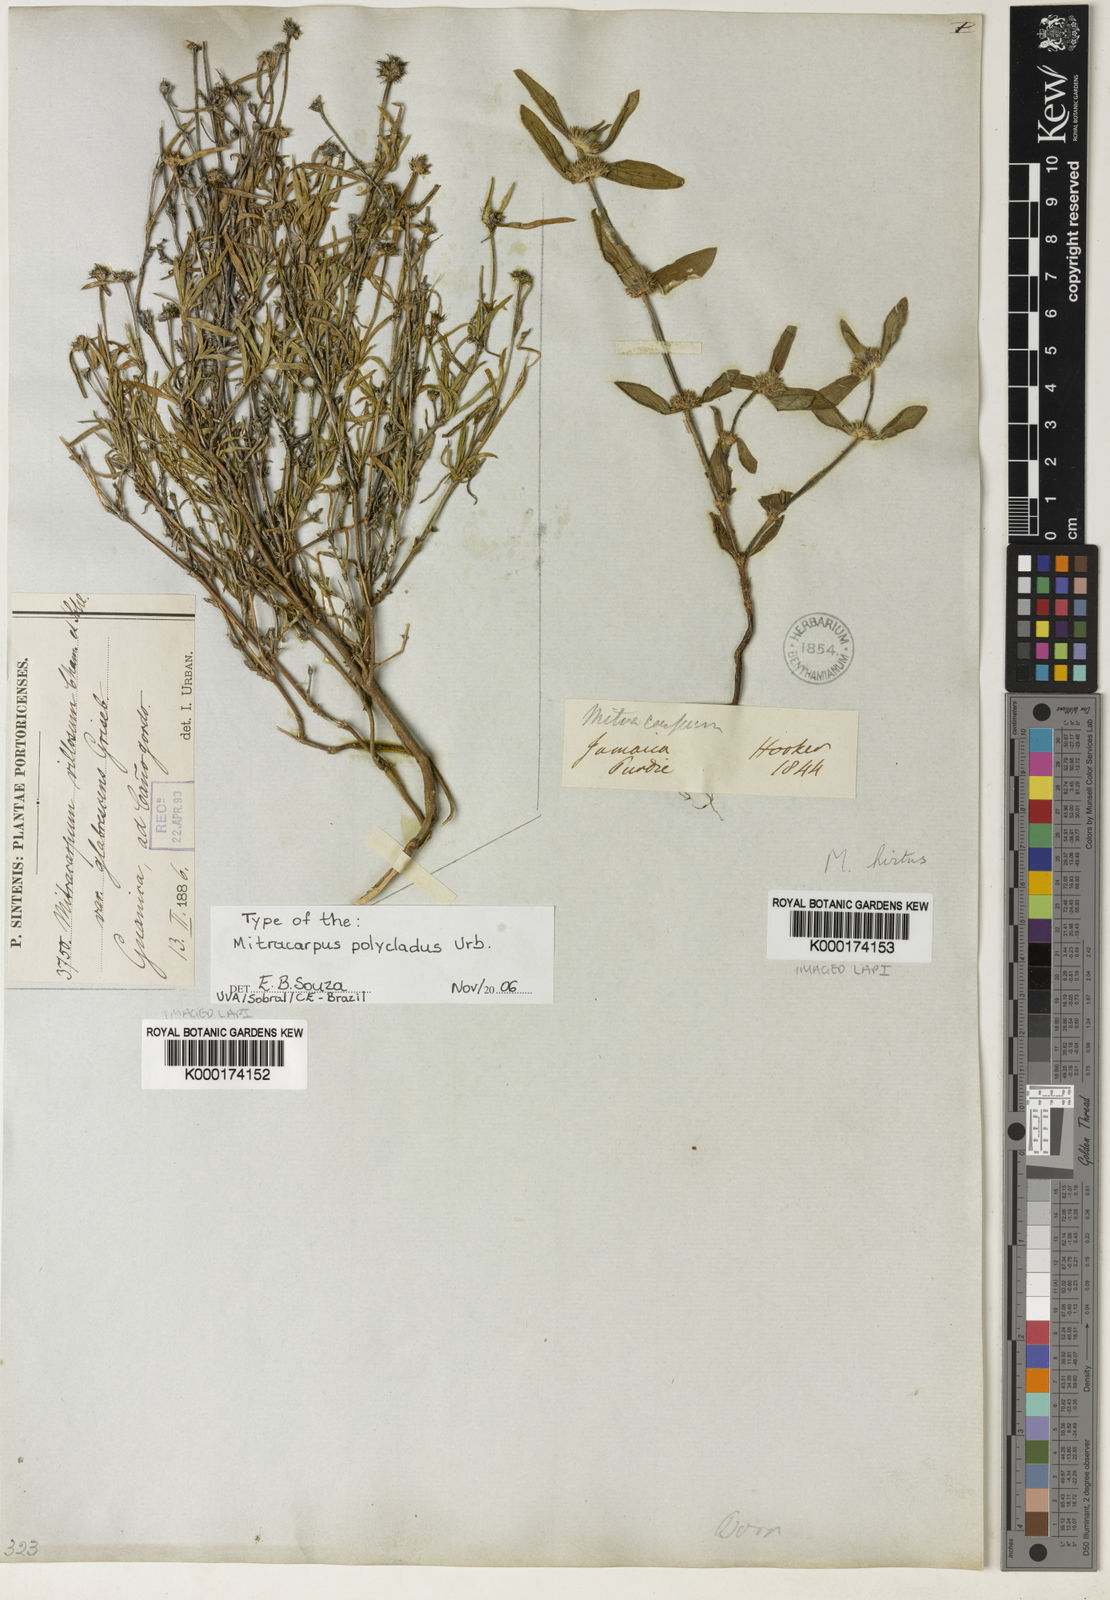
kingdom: Plantae
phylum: Tracheophyta
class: Magnoliopsida
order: Gentianales
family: Rubiaceae
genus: Mitracarpus
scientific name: Mitracarpus polycladus
